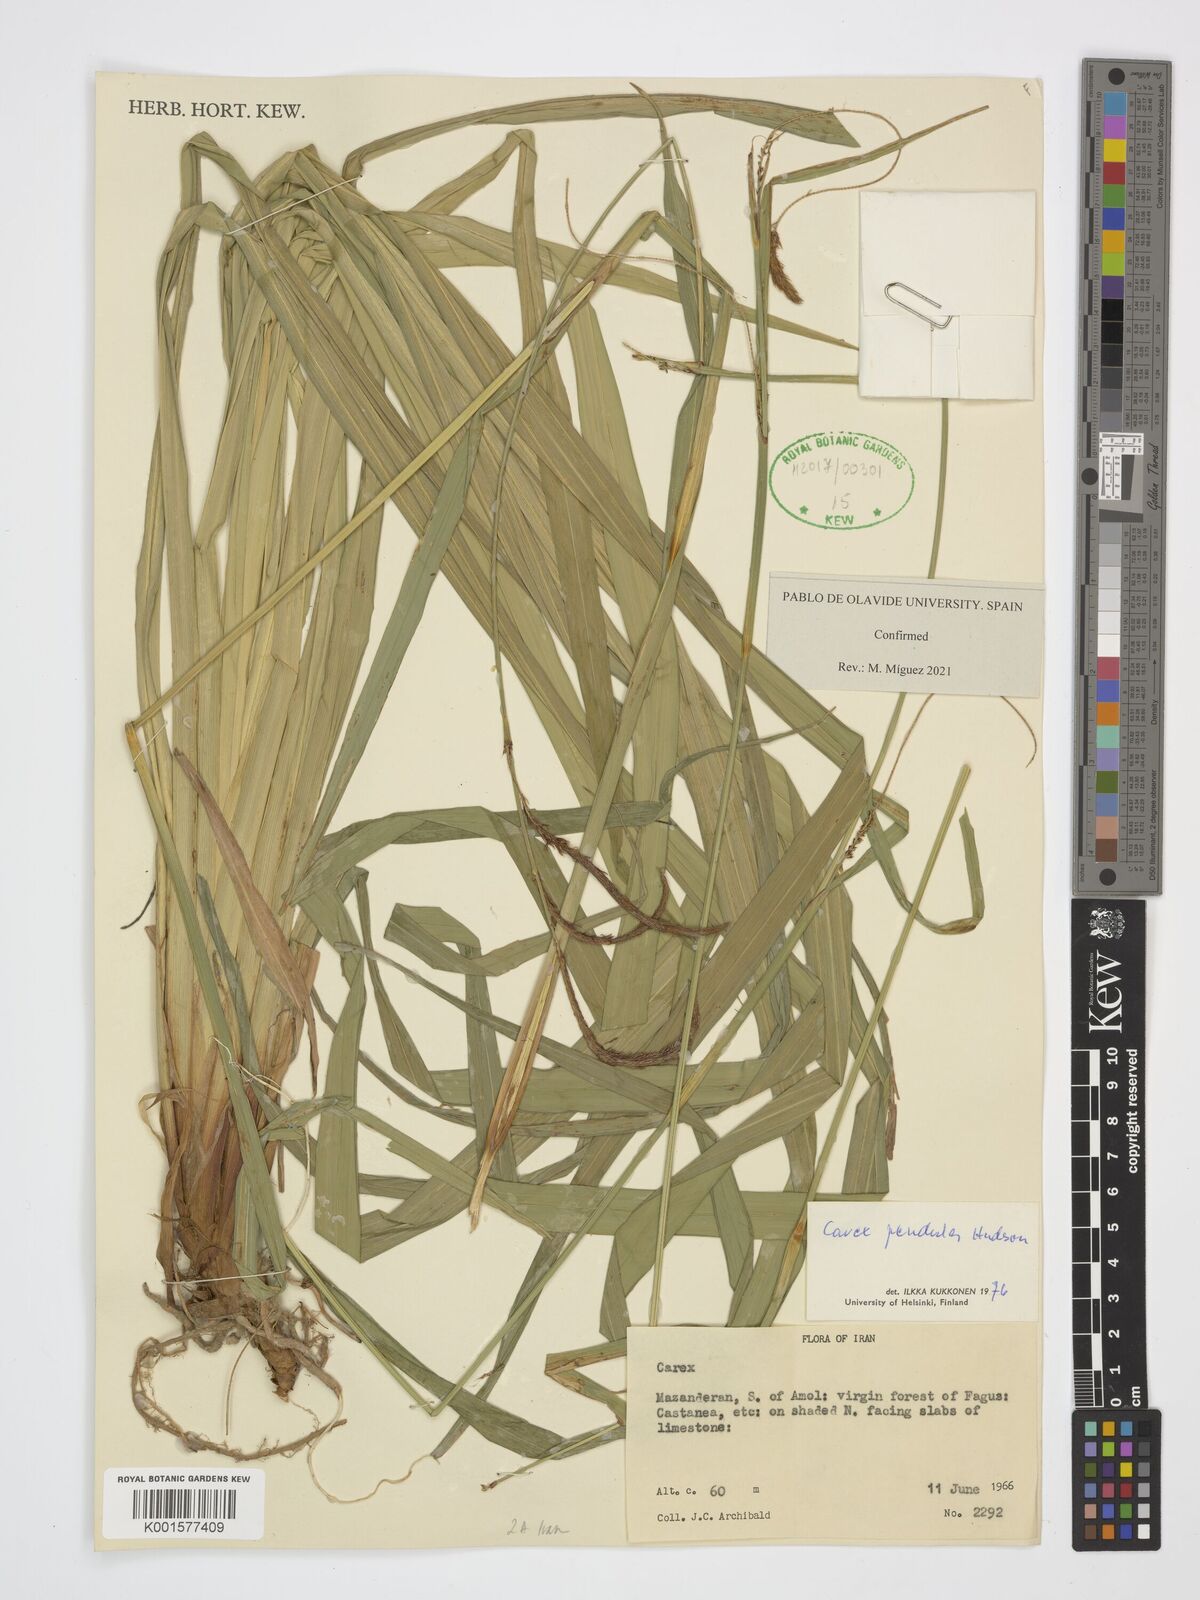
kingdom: Plantae
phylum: Tracheophyta
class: Liliopsida
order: Poales
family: Cyperaceae
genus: Carex
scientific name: Carex pendula
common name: Pendulous sedge
